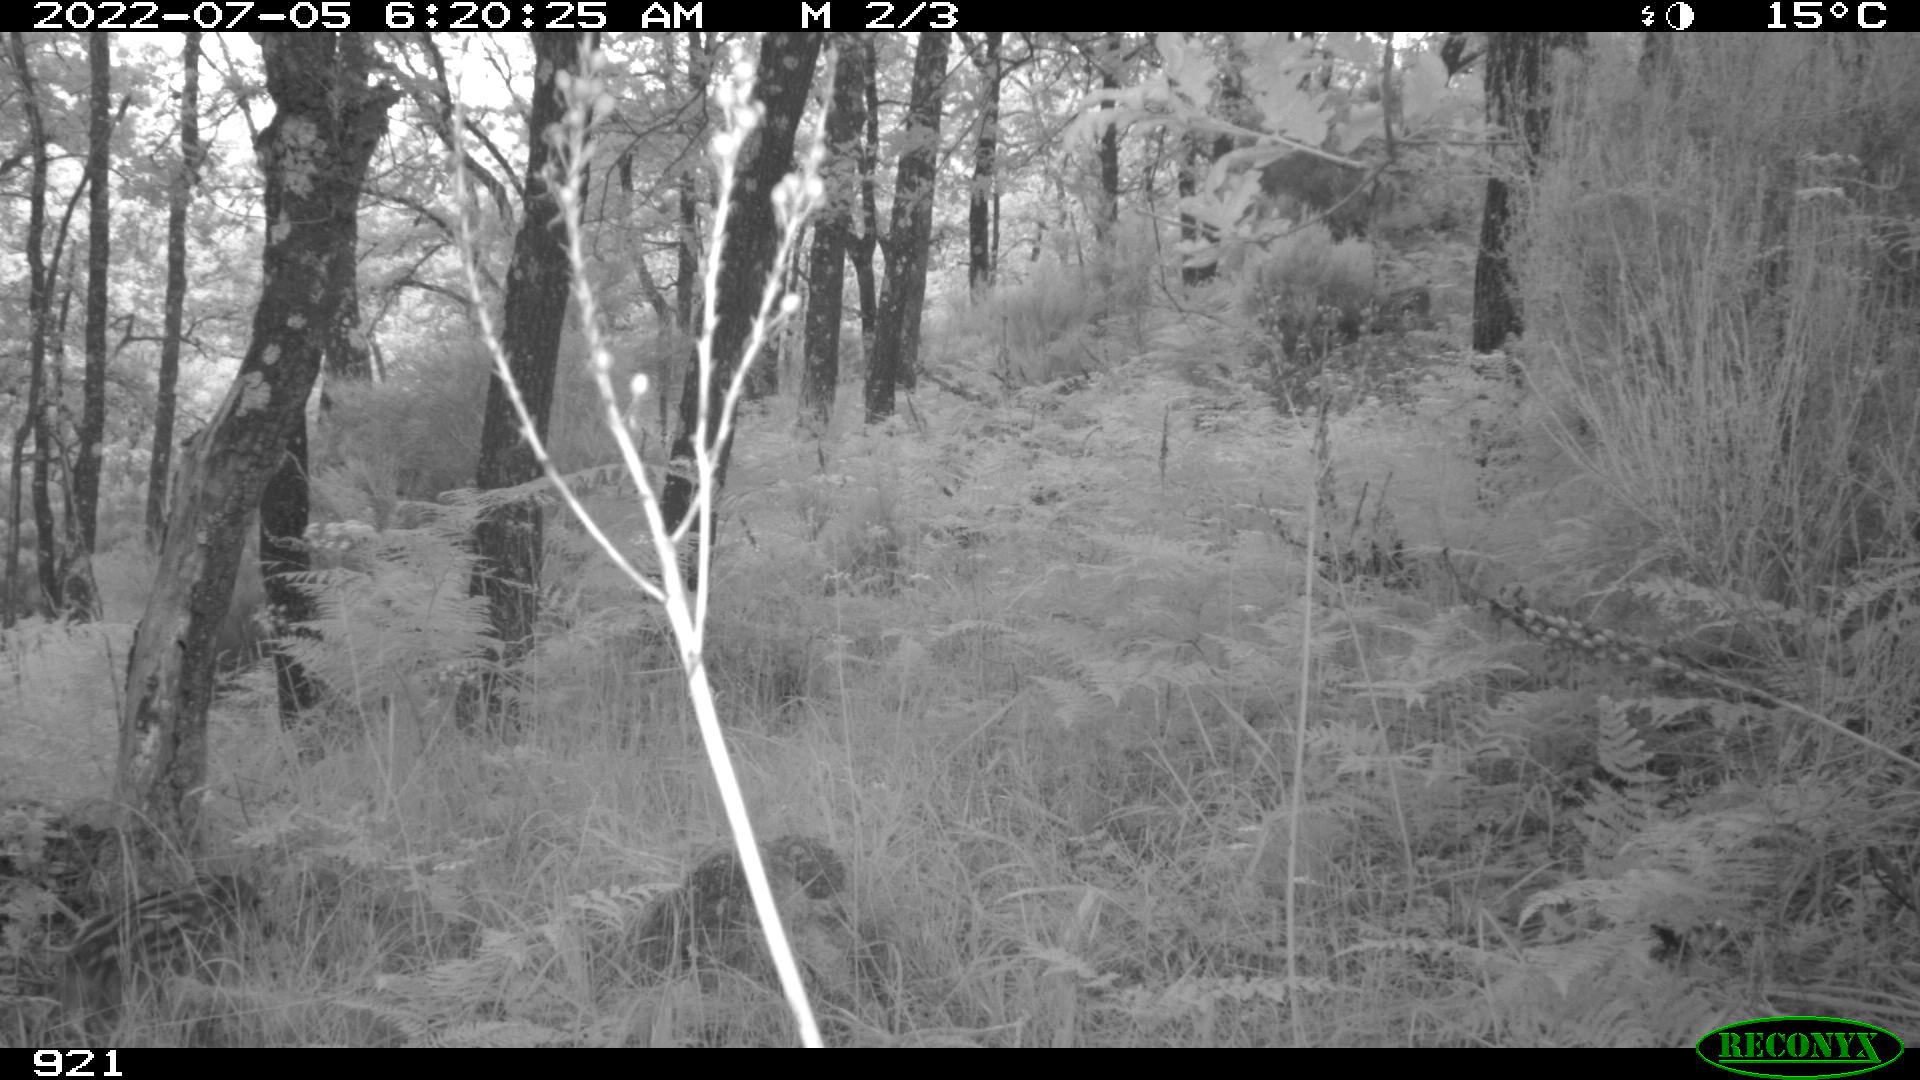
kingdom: Animalia
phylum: Chordata
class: Mammalia
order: Artiodactyla
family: Suidae
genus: Sus
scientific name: Sus scrofa
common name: Wild boar
